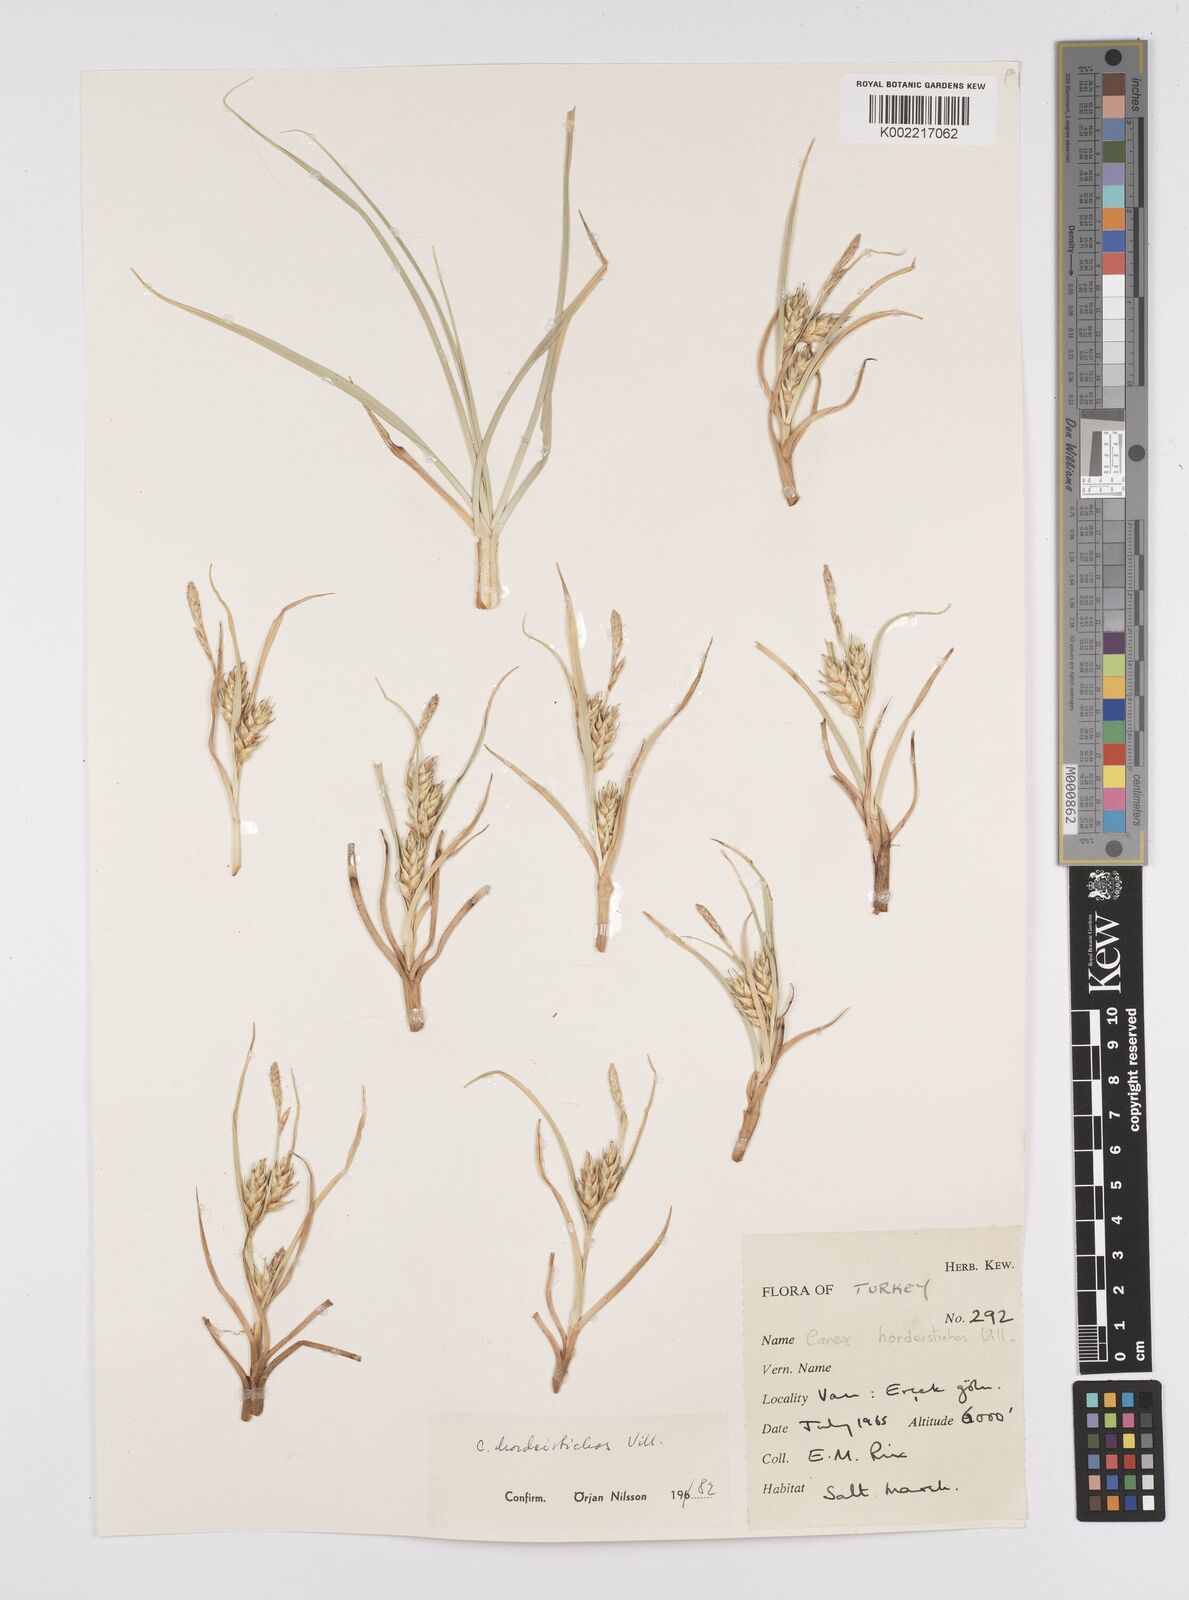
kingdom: Plantae
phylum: Tracheophyta
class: Liliopsida
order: Poales
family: Cyperaceae
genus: Carex
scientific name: Carex hordeistichos
